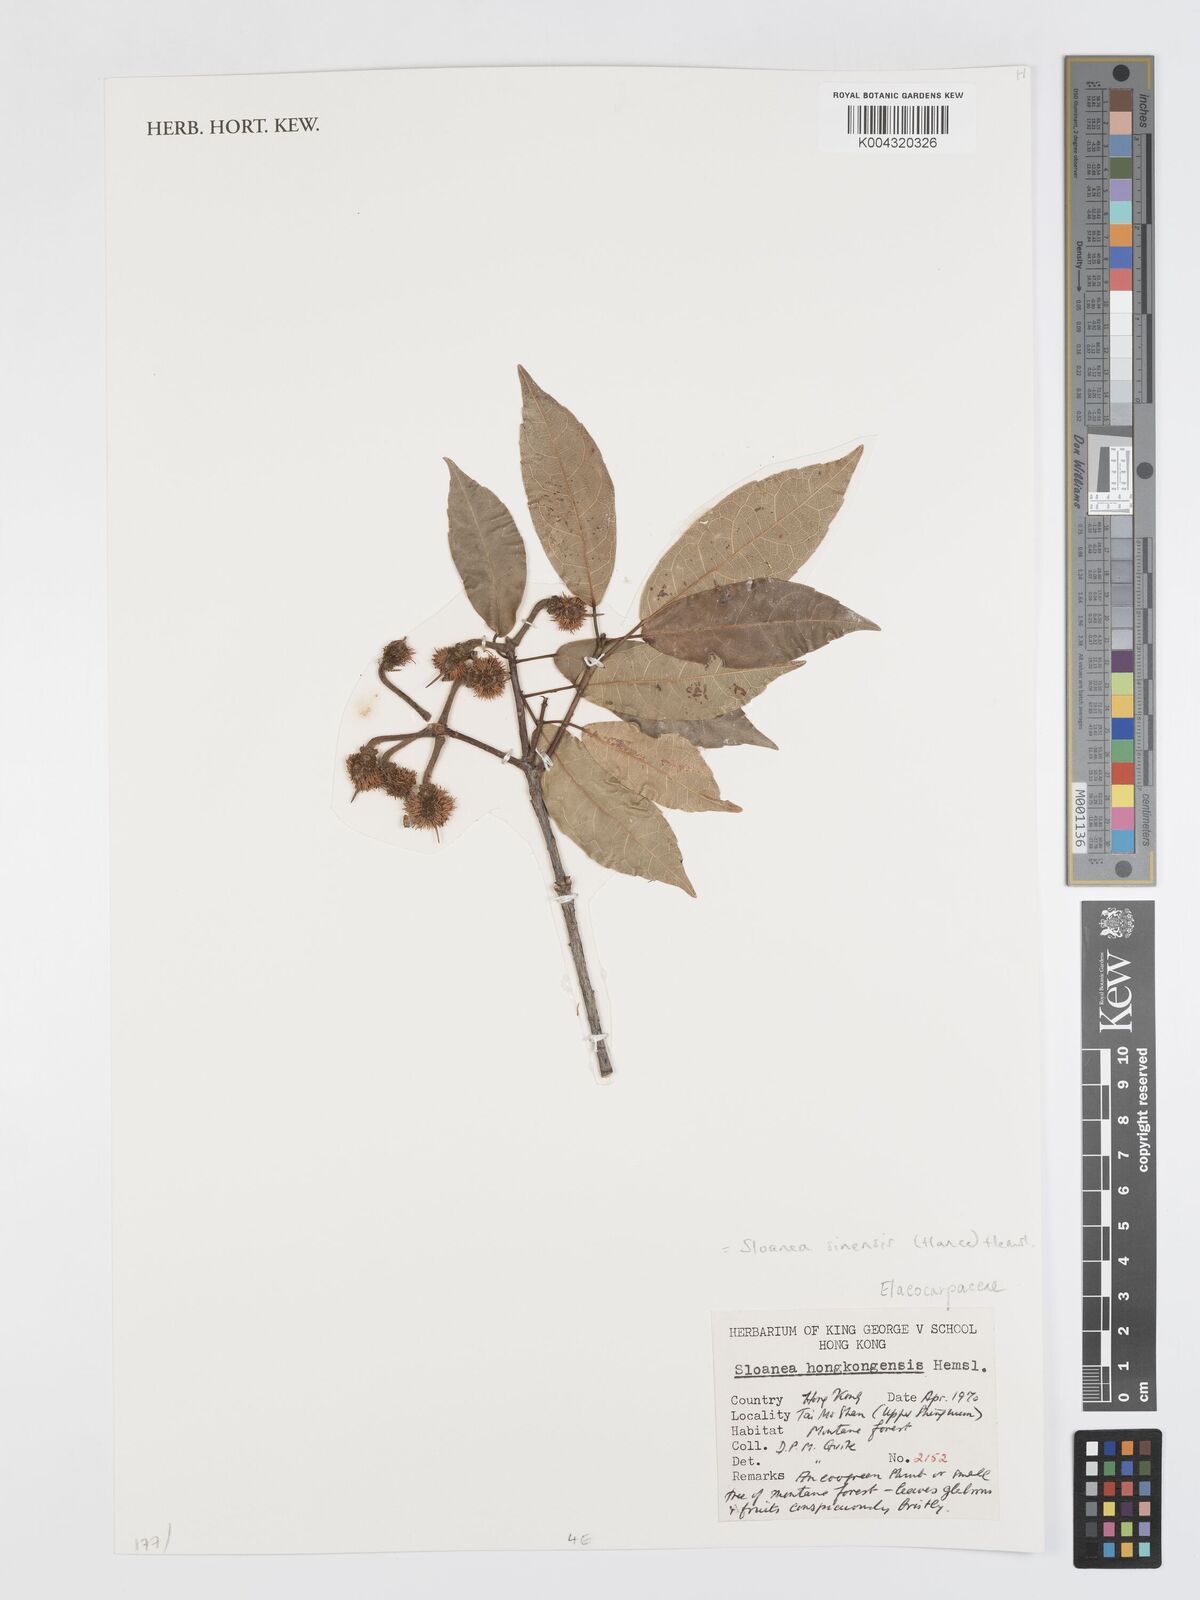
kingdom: Plantae
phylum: Tracheophyta
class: Magnoliopsida
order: Oxalidales
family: Elaeocarpaceae
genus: Sloanea
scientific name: Sloanea sinensis
